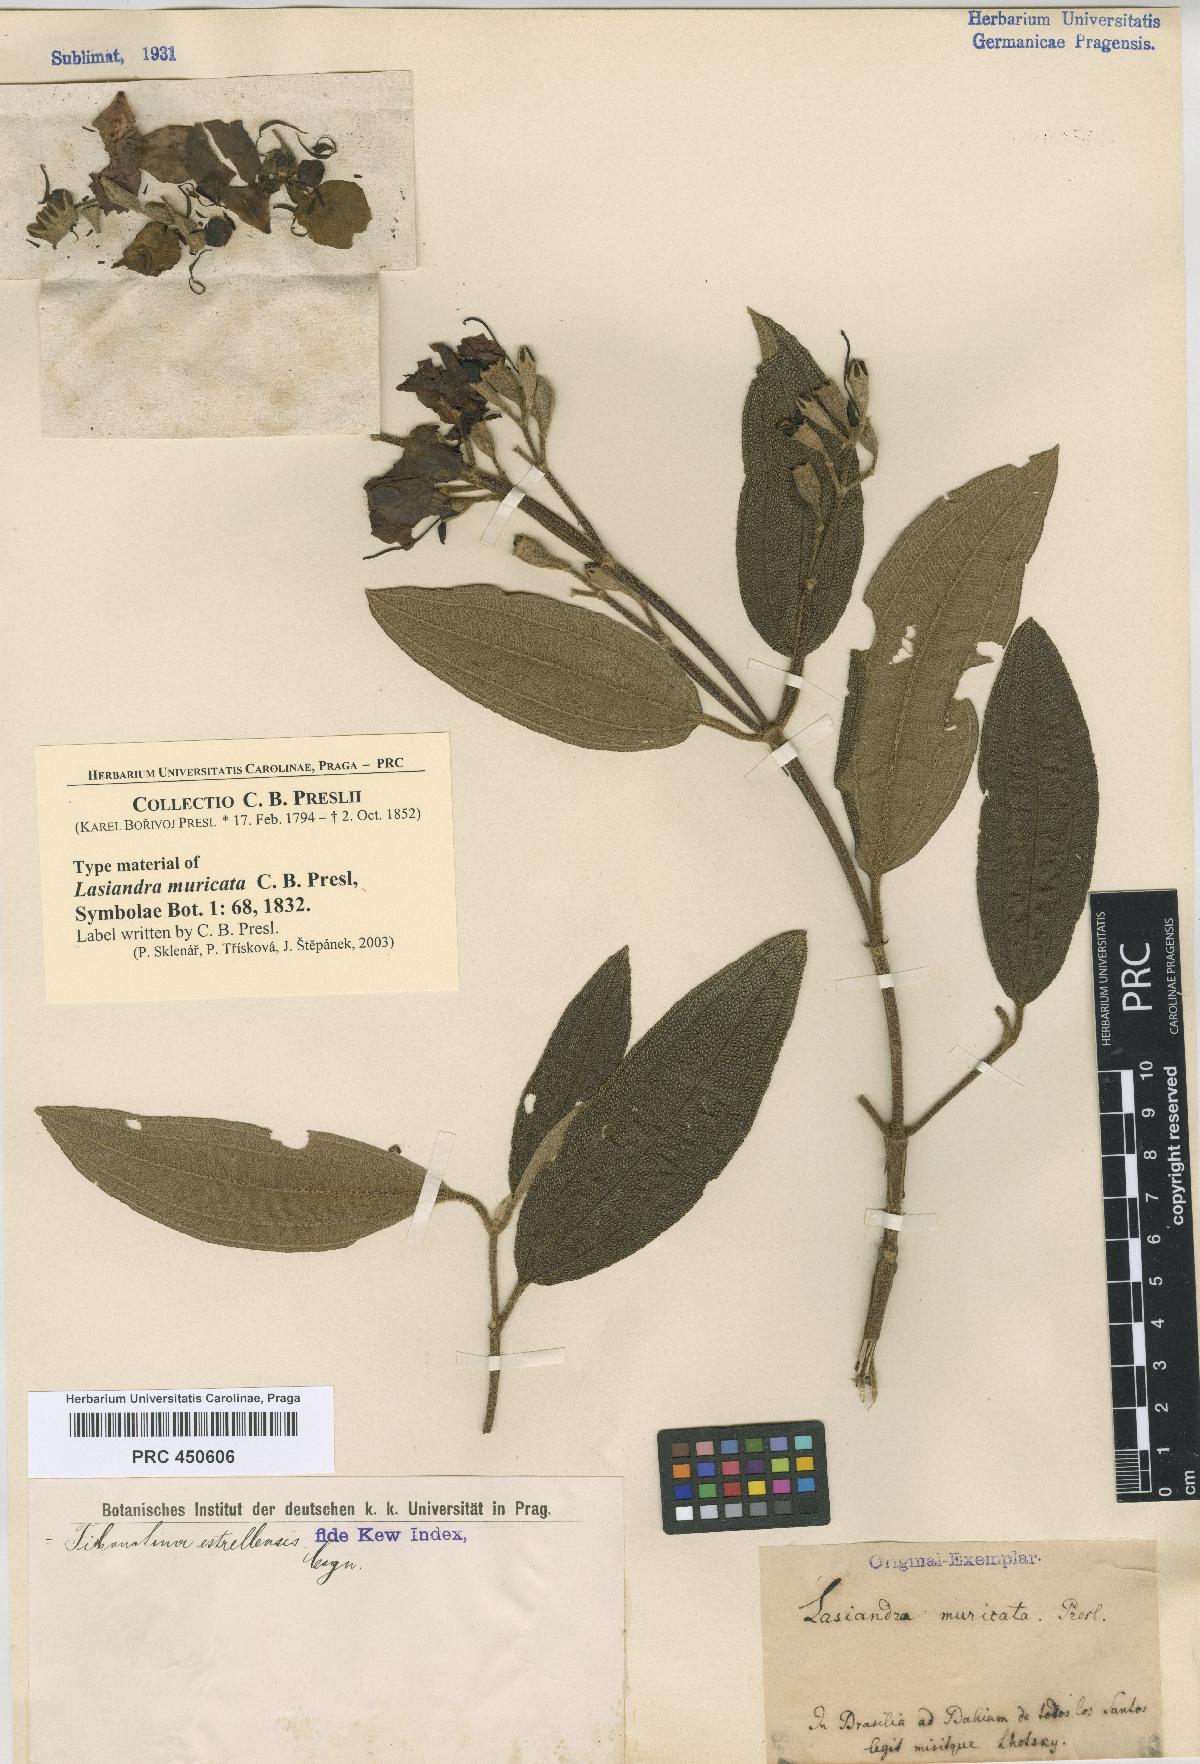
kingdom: Plantae
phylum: Tracheophyta
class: Magnoliopsida
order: Myrtales
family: Melastomataceae
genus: Pleroma
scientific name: Pleroma estrellense
